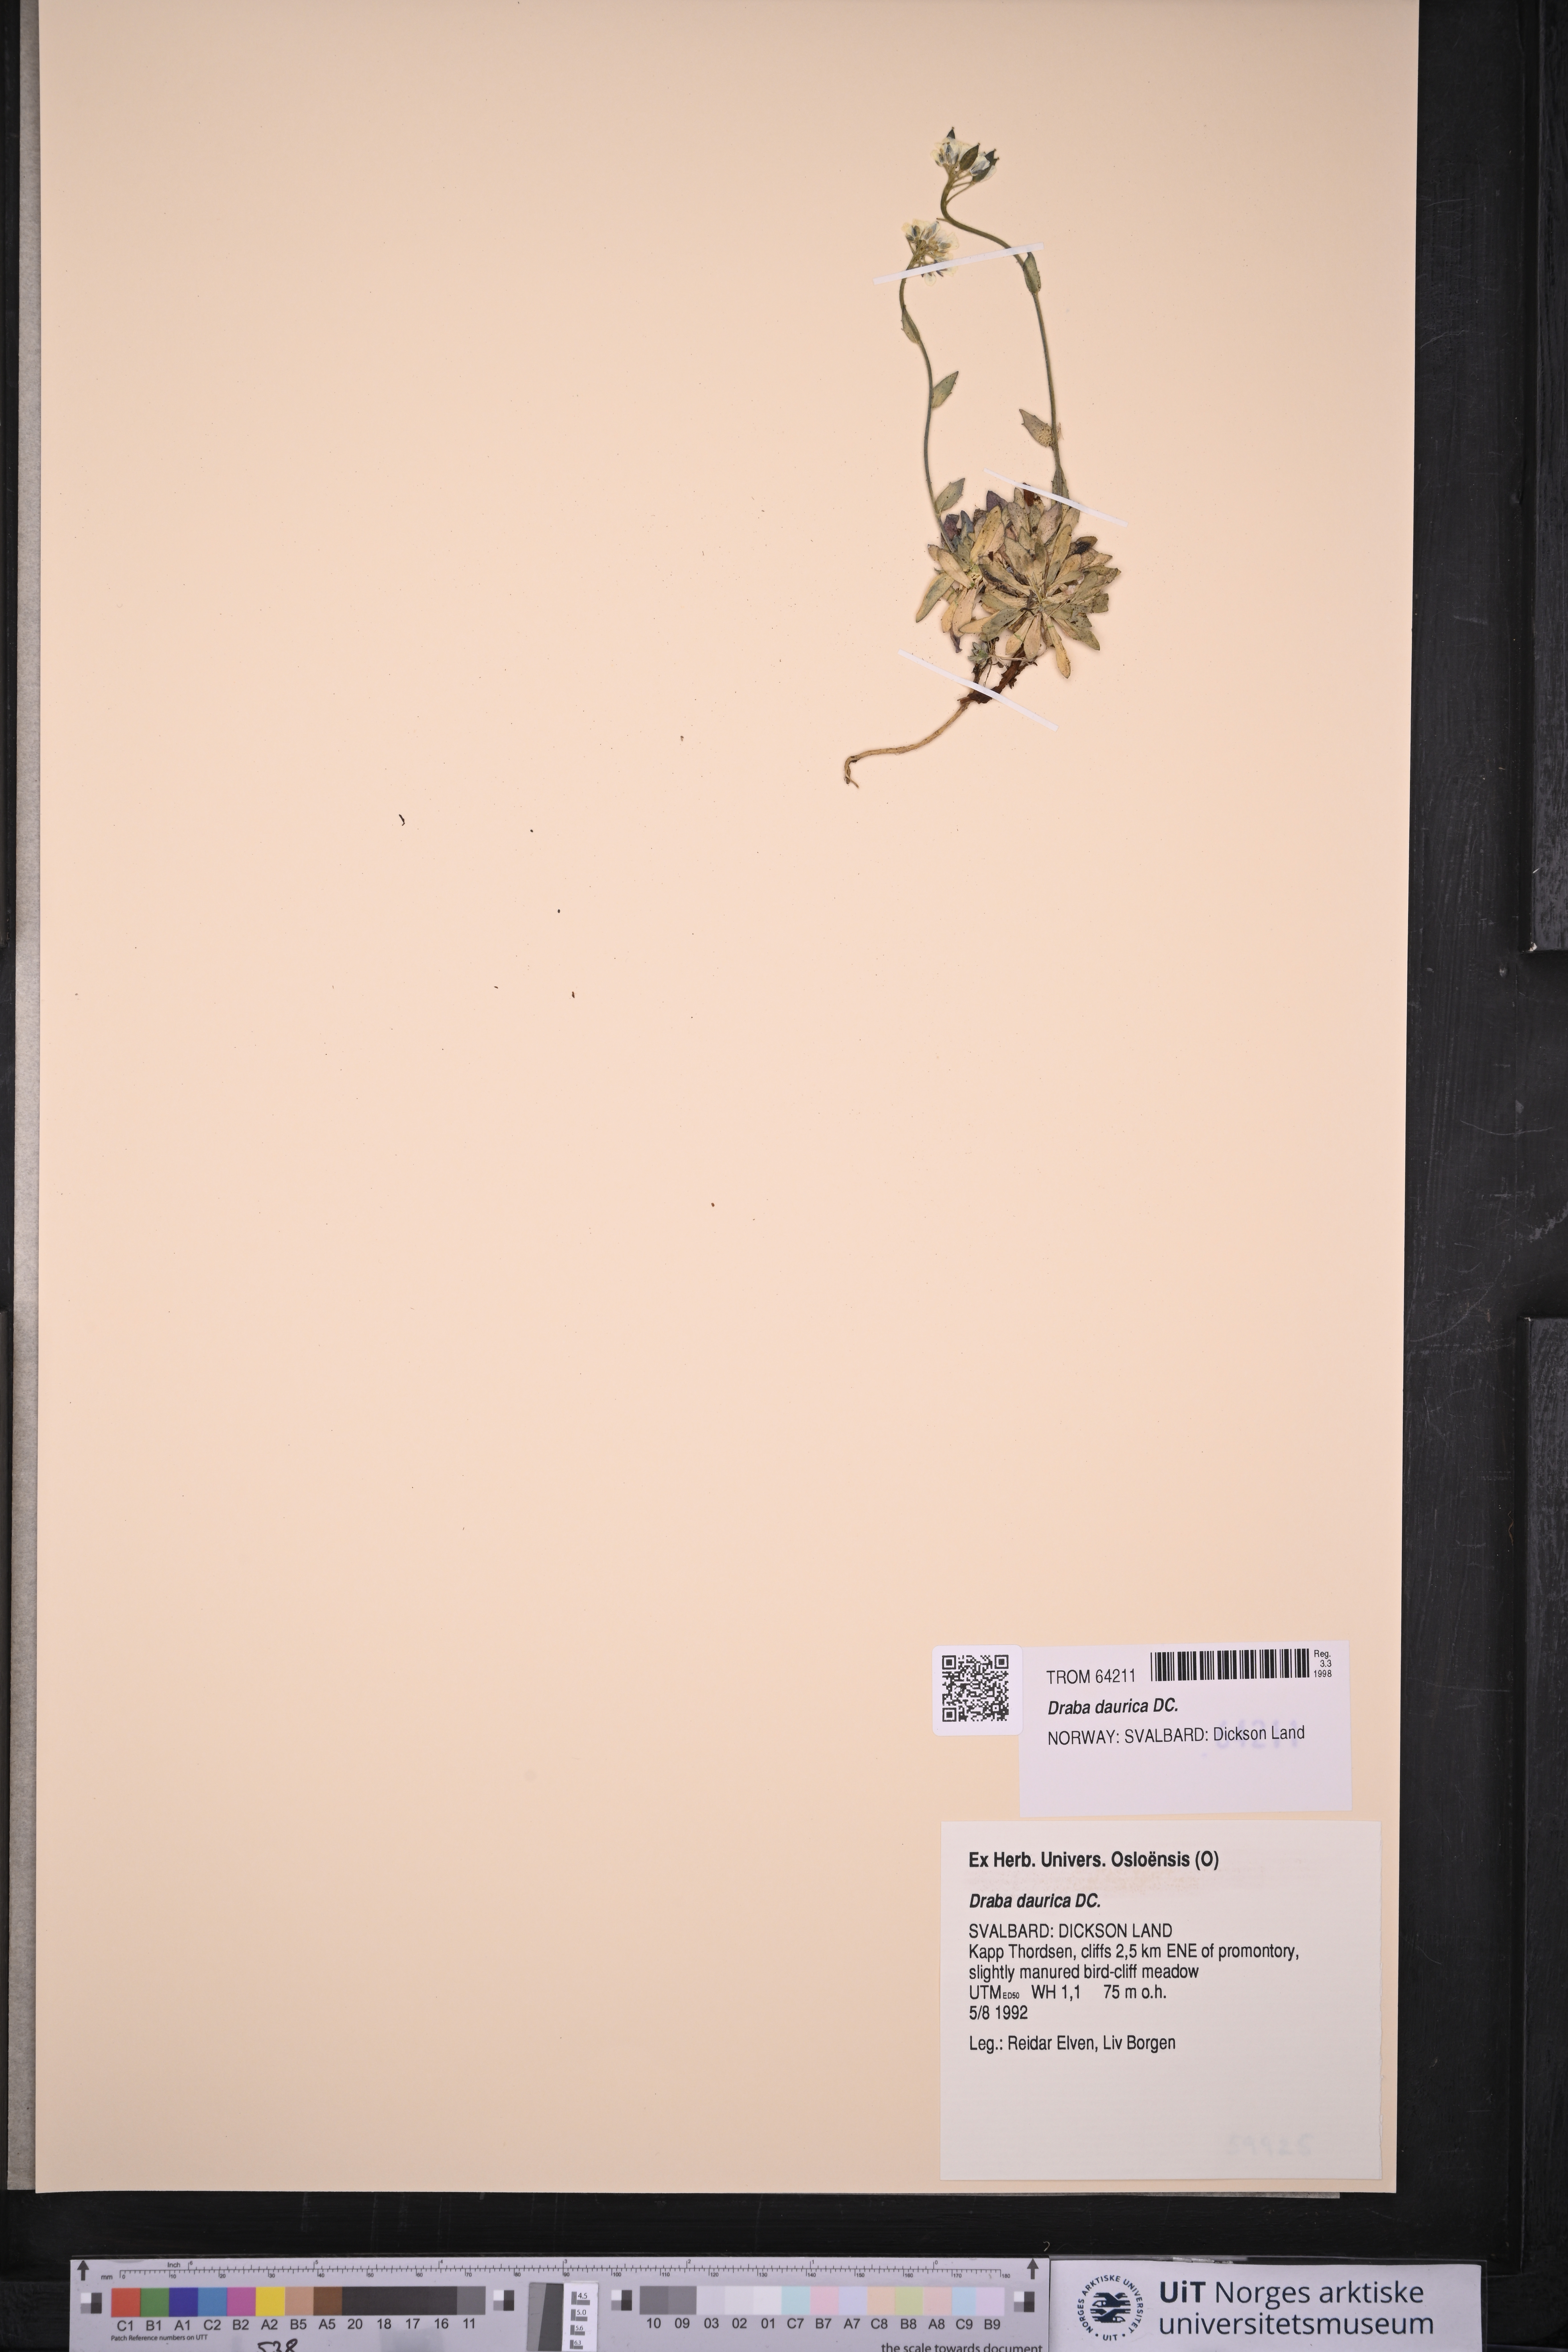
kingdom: Plantae
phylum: Tracheophyta
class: Magnoliopsida
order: Brassicales
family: Brassicaceae
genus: Draba
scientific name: Draba glabella
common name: Glaucous draba
